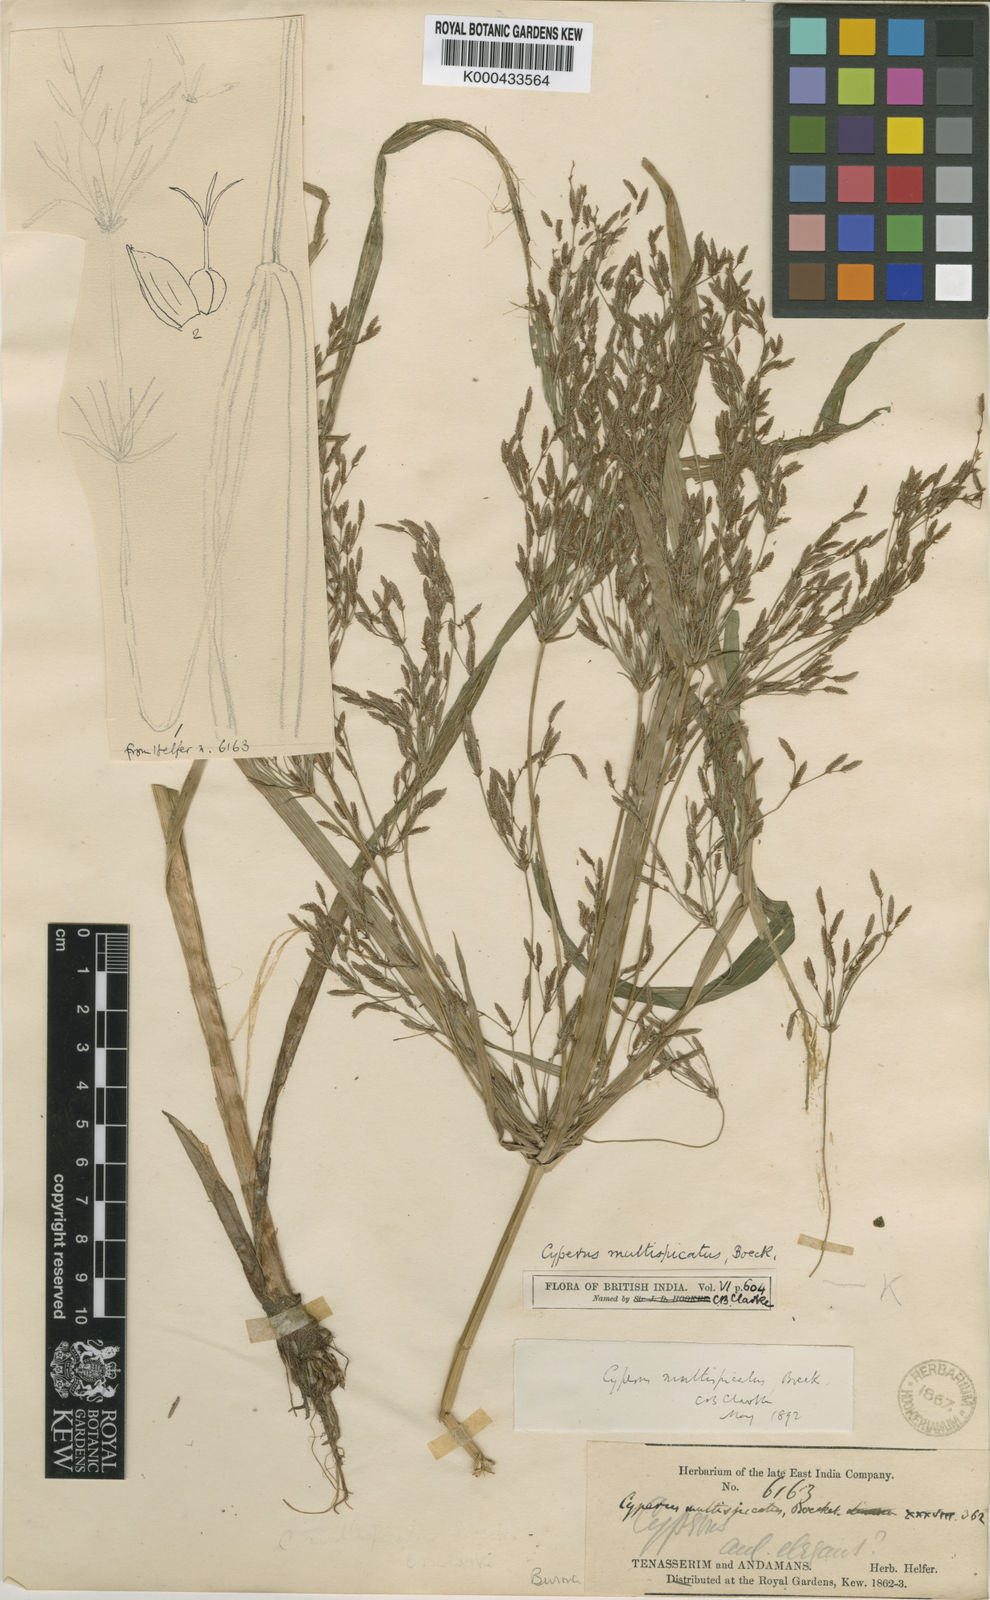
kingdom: Plantae
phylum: Tracheophyta
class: Liliopsida
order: Poales
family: Cyperaceae
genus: Cyperus
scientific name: Cyperus multispicatus
